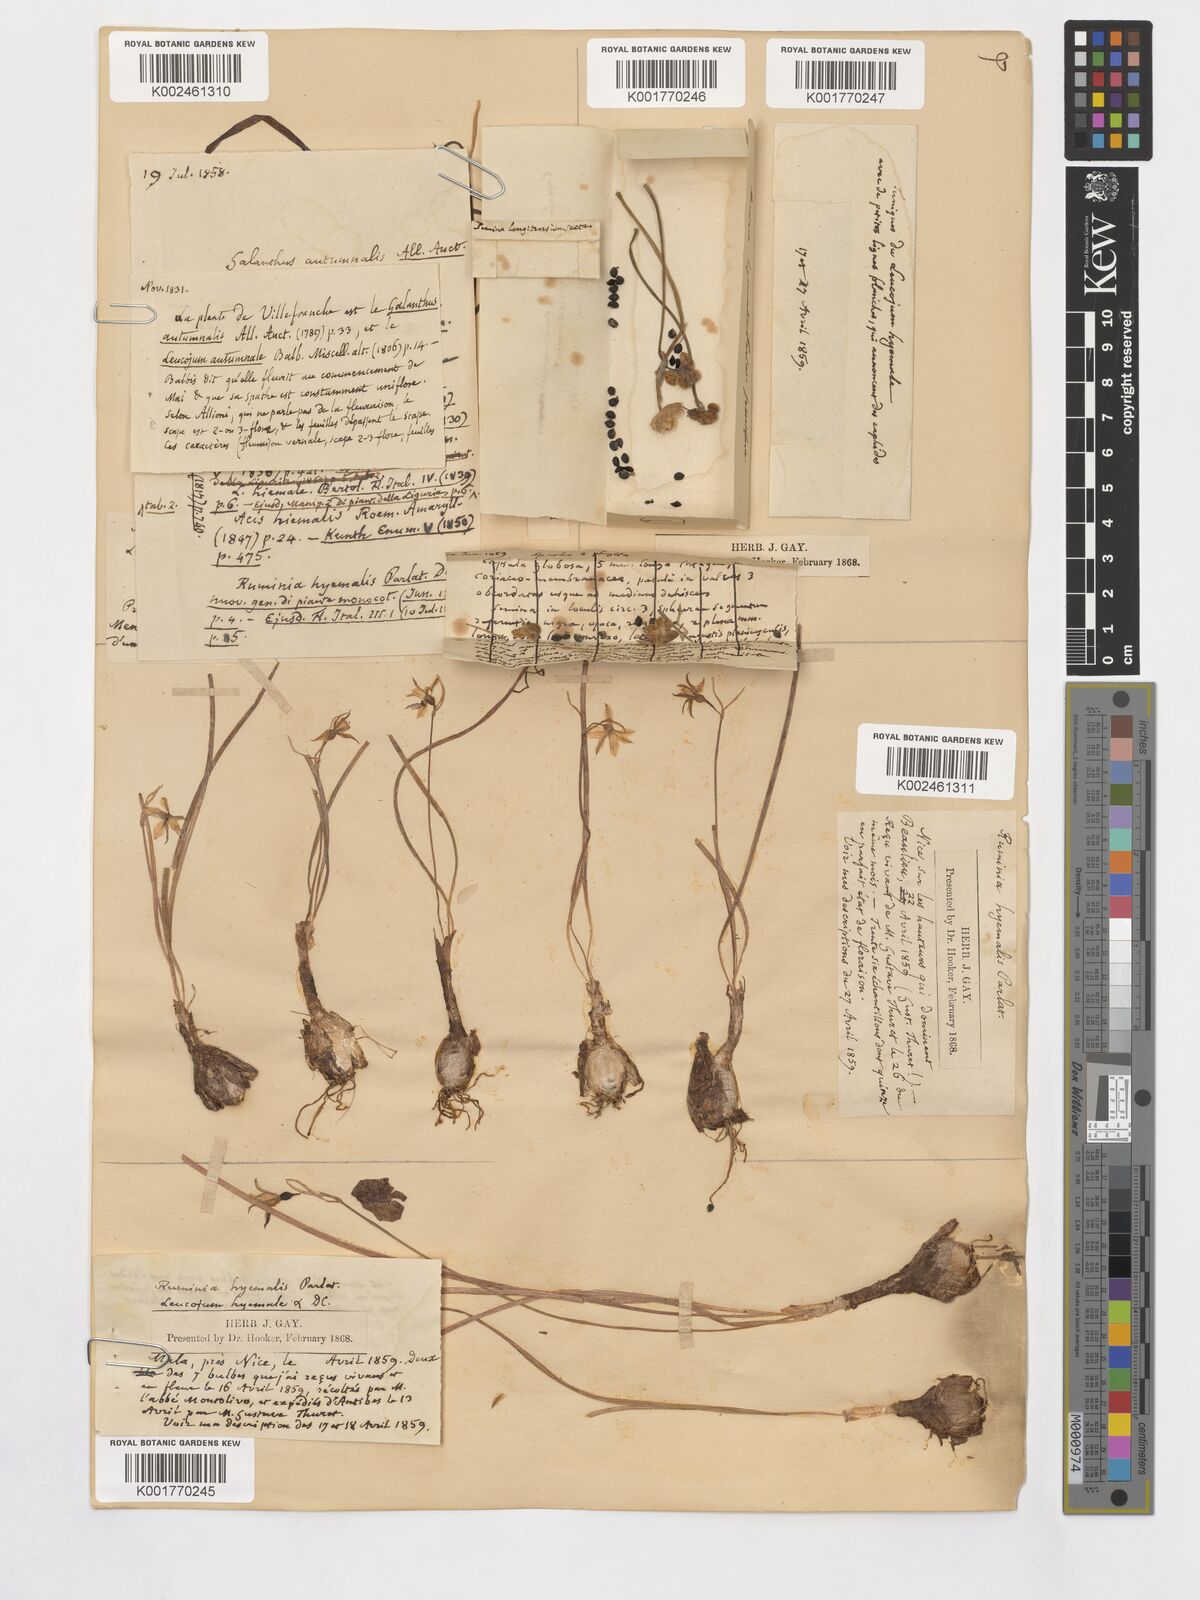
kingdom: Plantae
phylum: Tracheophyta
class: Liliopsida
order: Asparagales
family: Amaryllidaceae
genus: Acis
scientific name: Acis autumnalis
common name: Autumn snowflake
